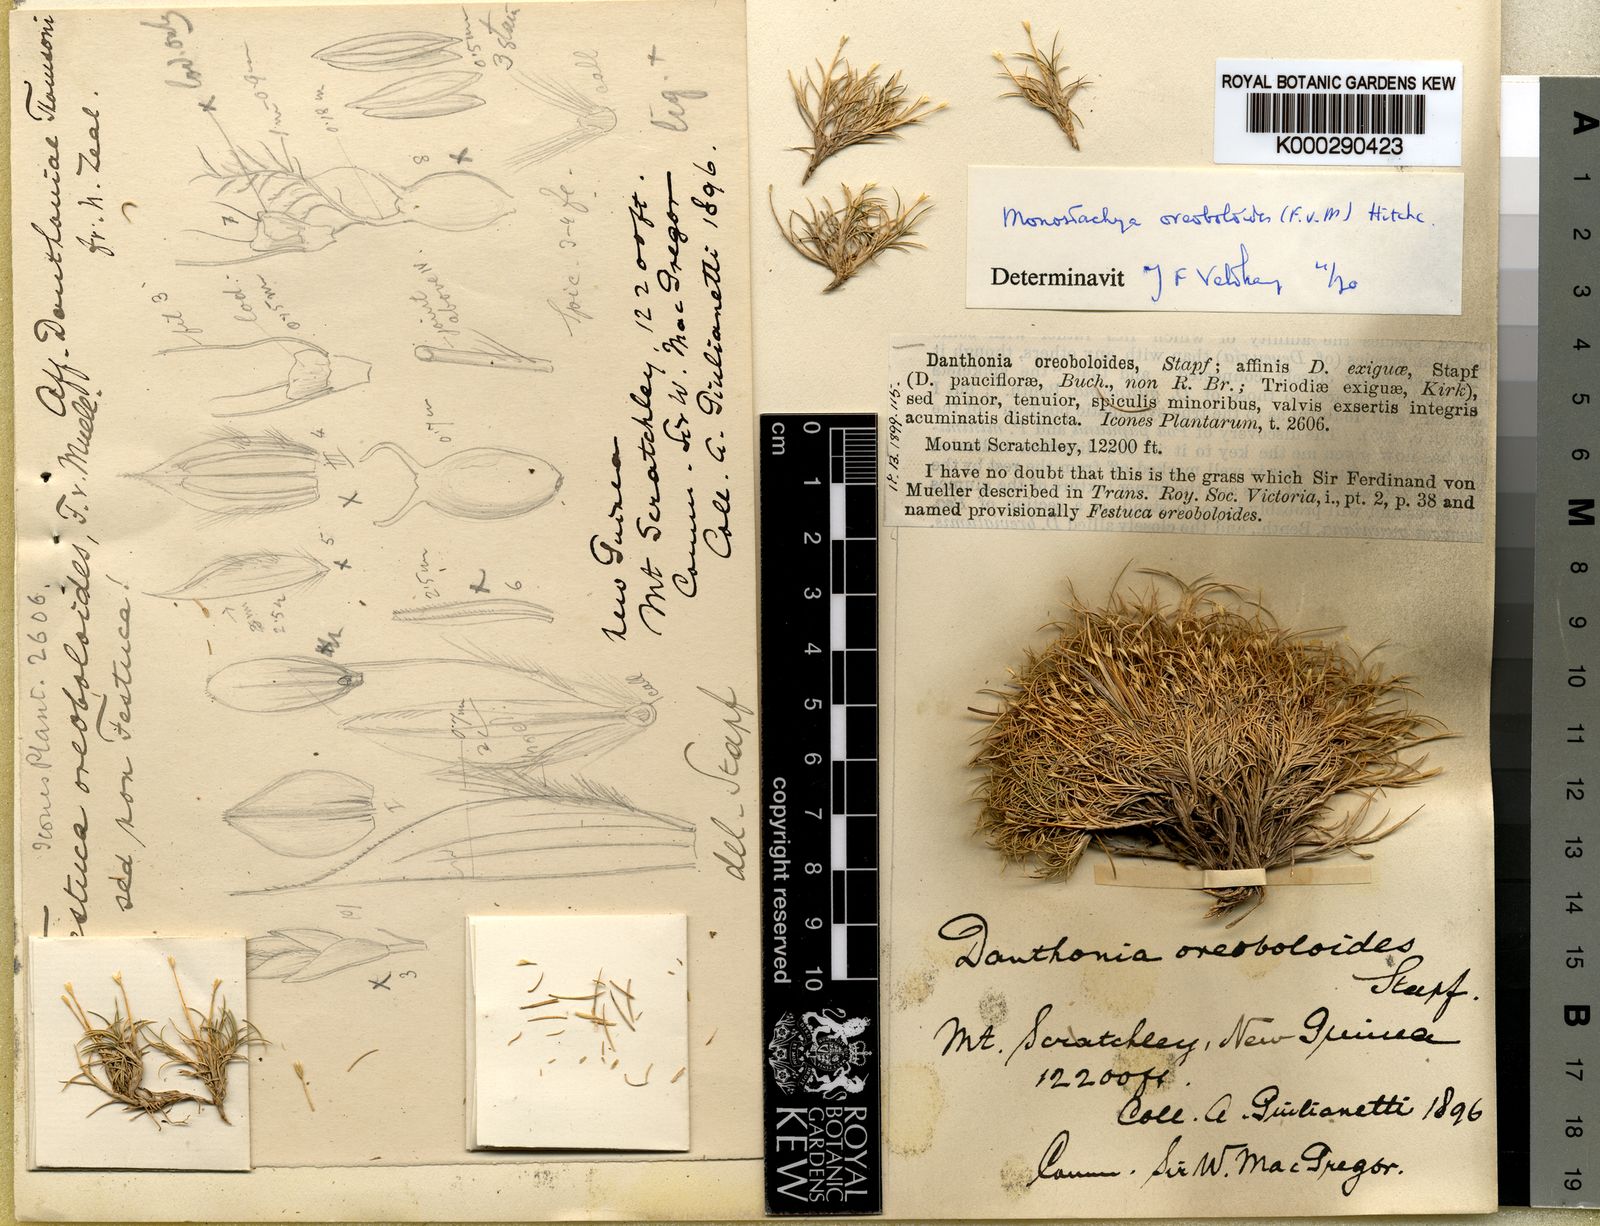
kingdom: Plantae
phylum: Tracheophyta
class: Liliopsida
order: Poales
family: Poaceae
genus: Rytidosperma
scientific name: Rytidosperma oreoboloides
